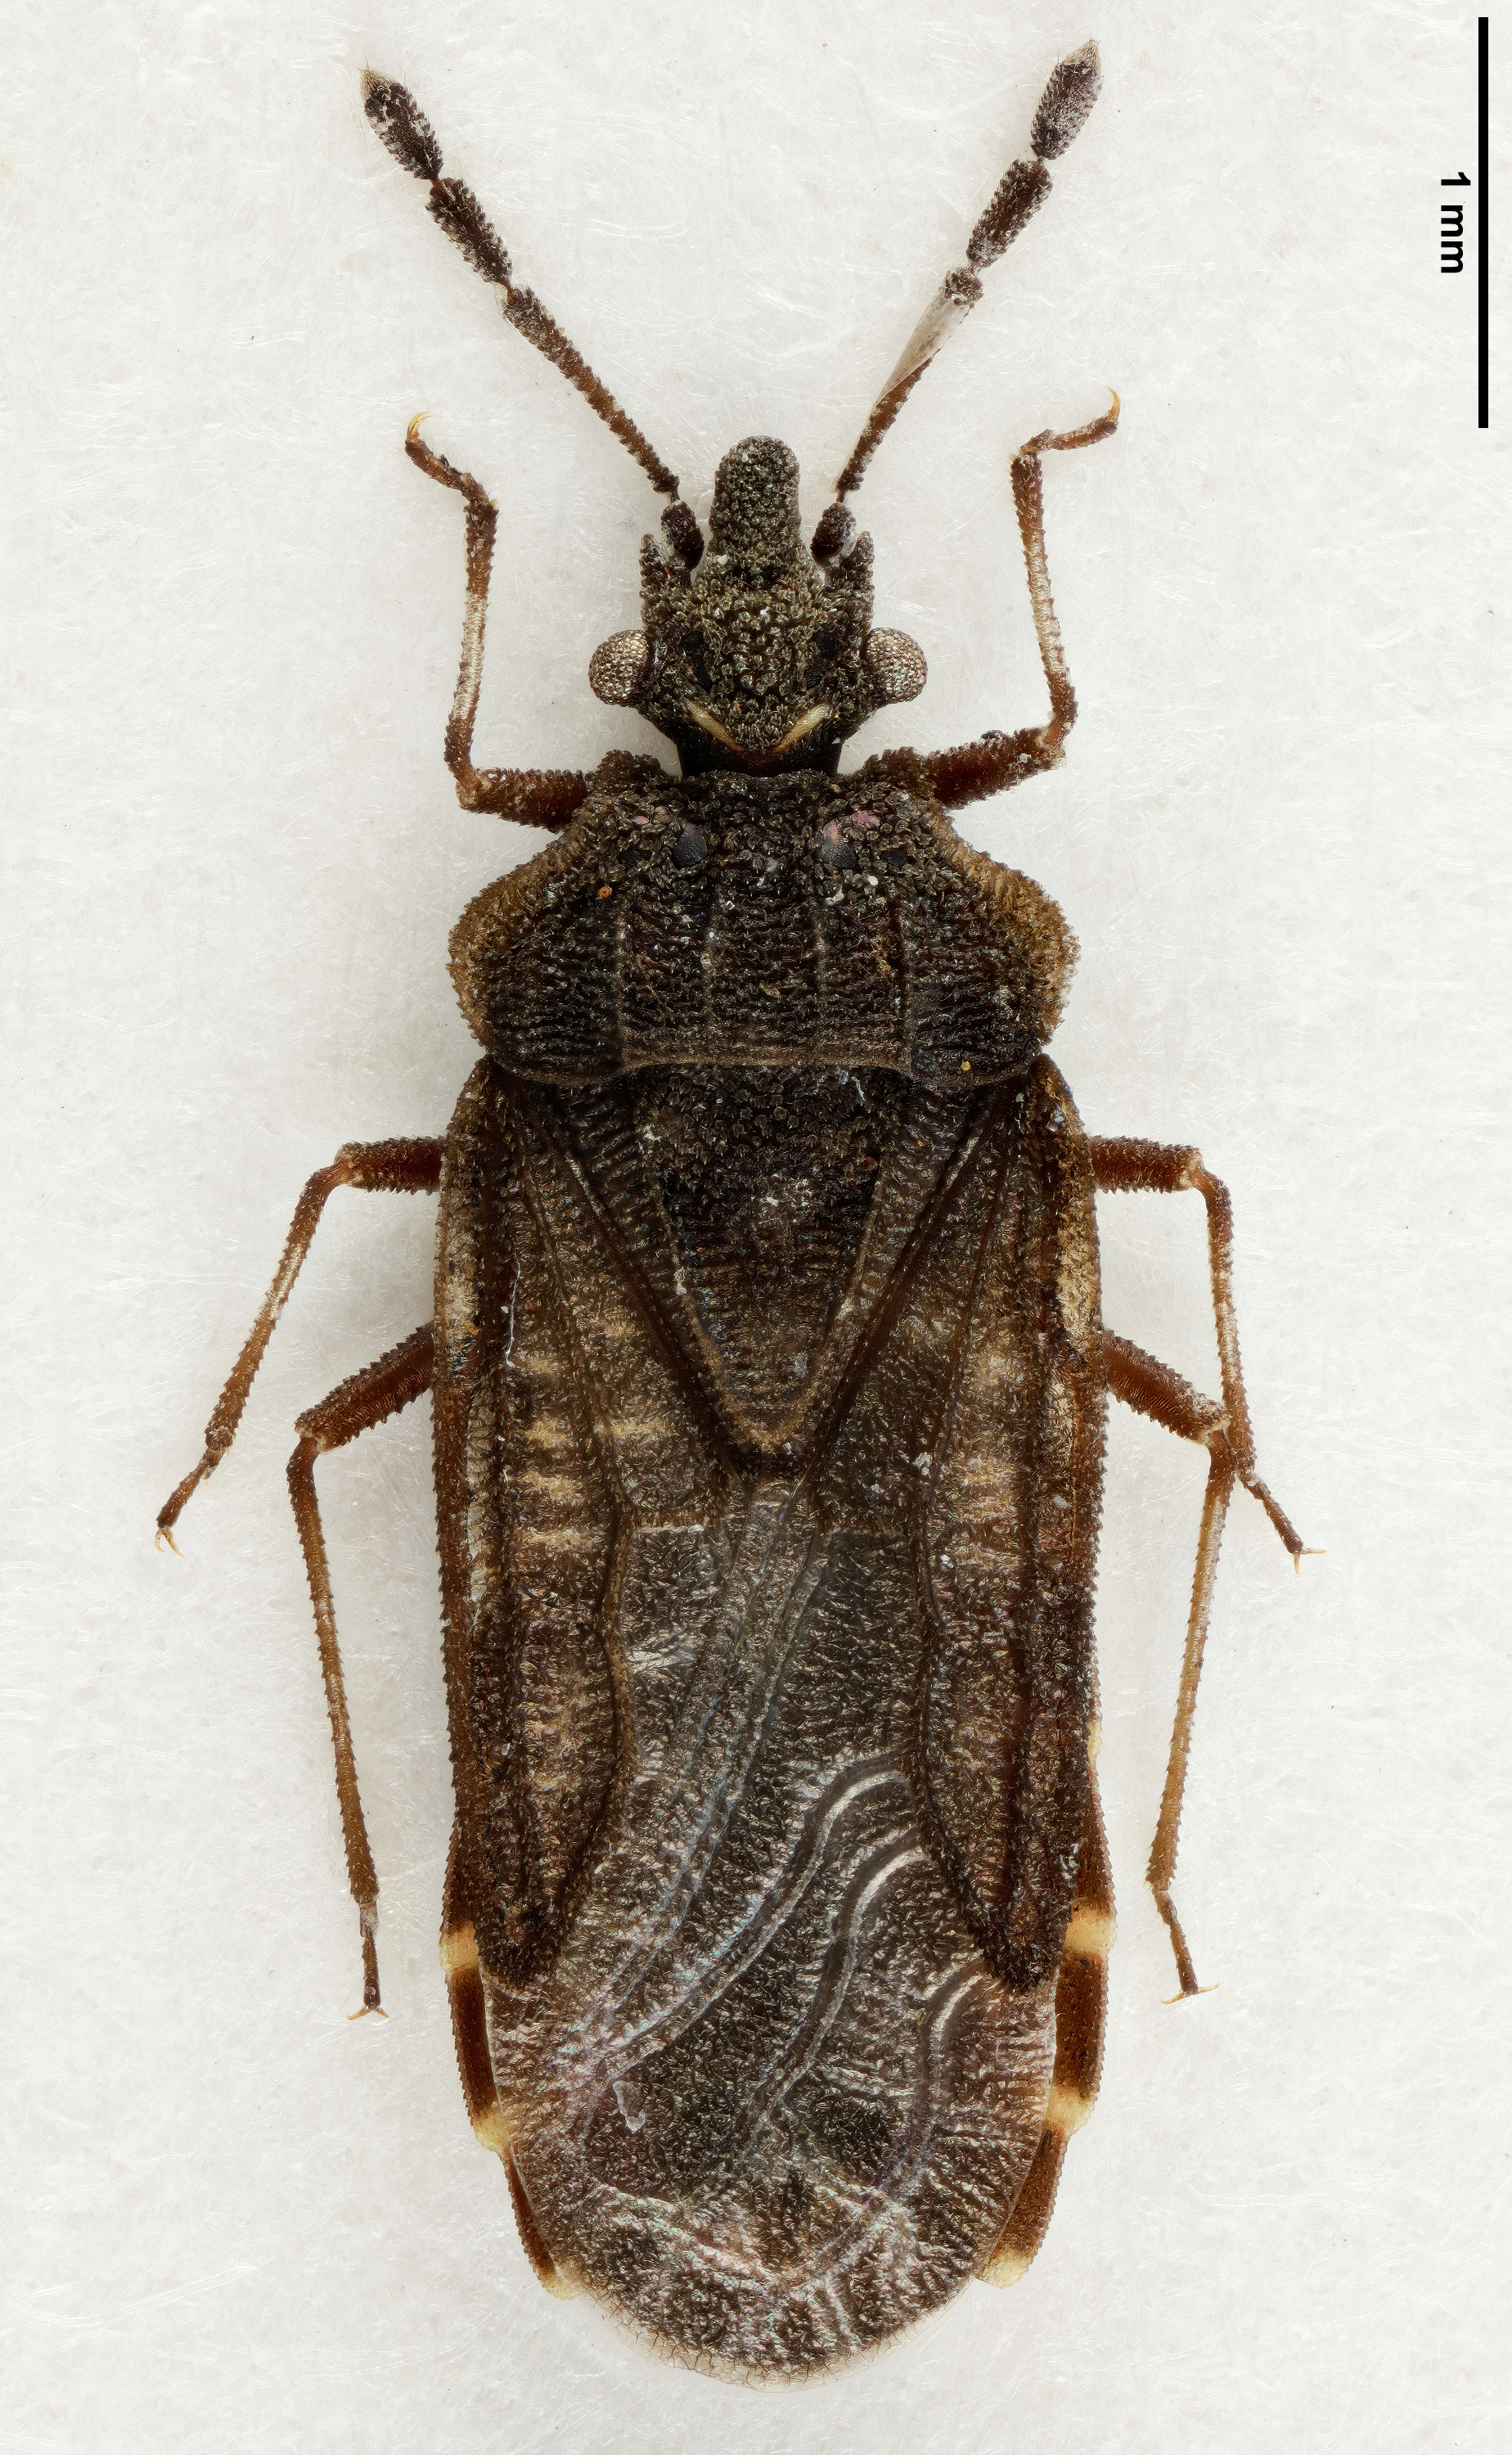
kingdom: Animalia
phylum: Arthropoda
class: Insecta
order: Hemiptera
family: Aradidae
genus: Aradus
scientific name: Aradus angularis
